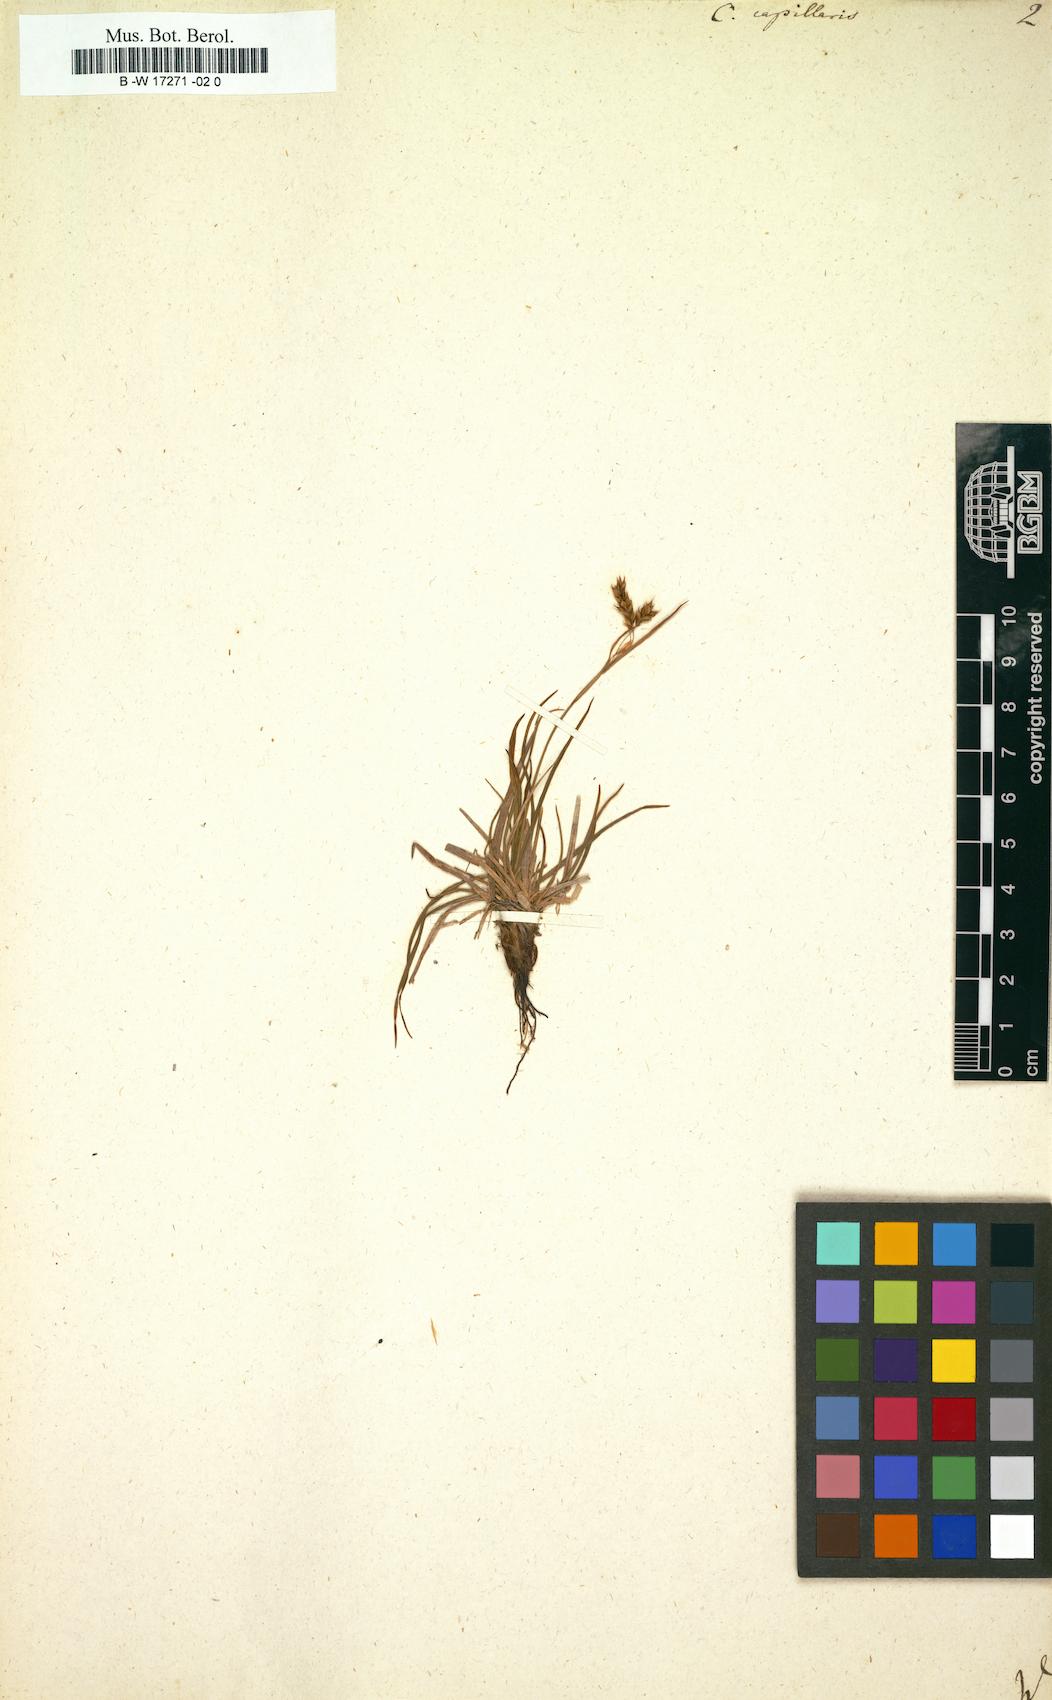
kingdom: Plantae
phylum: Tracheophyta
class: Liliopsida
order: Poales
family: Cyperaceae
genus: Carex
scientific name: Carex capillaris
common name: Hair sedge
